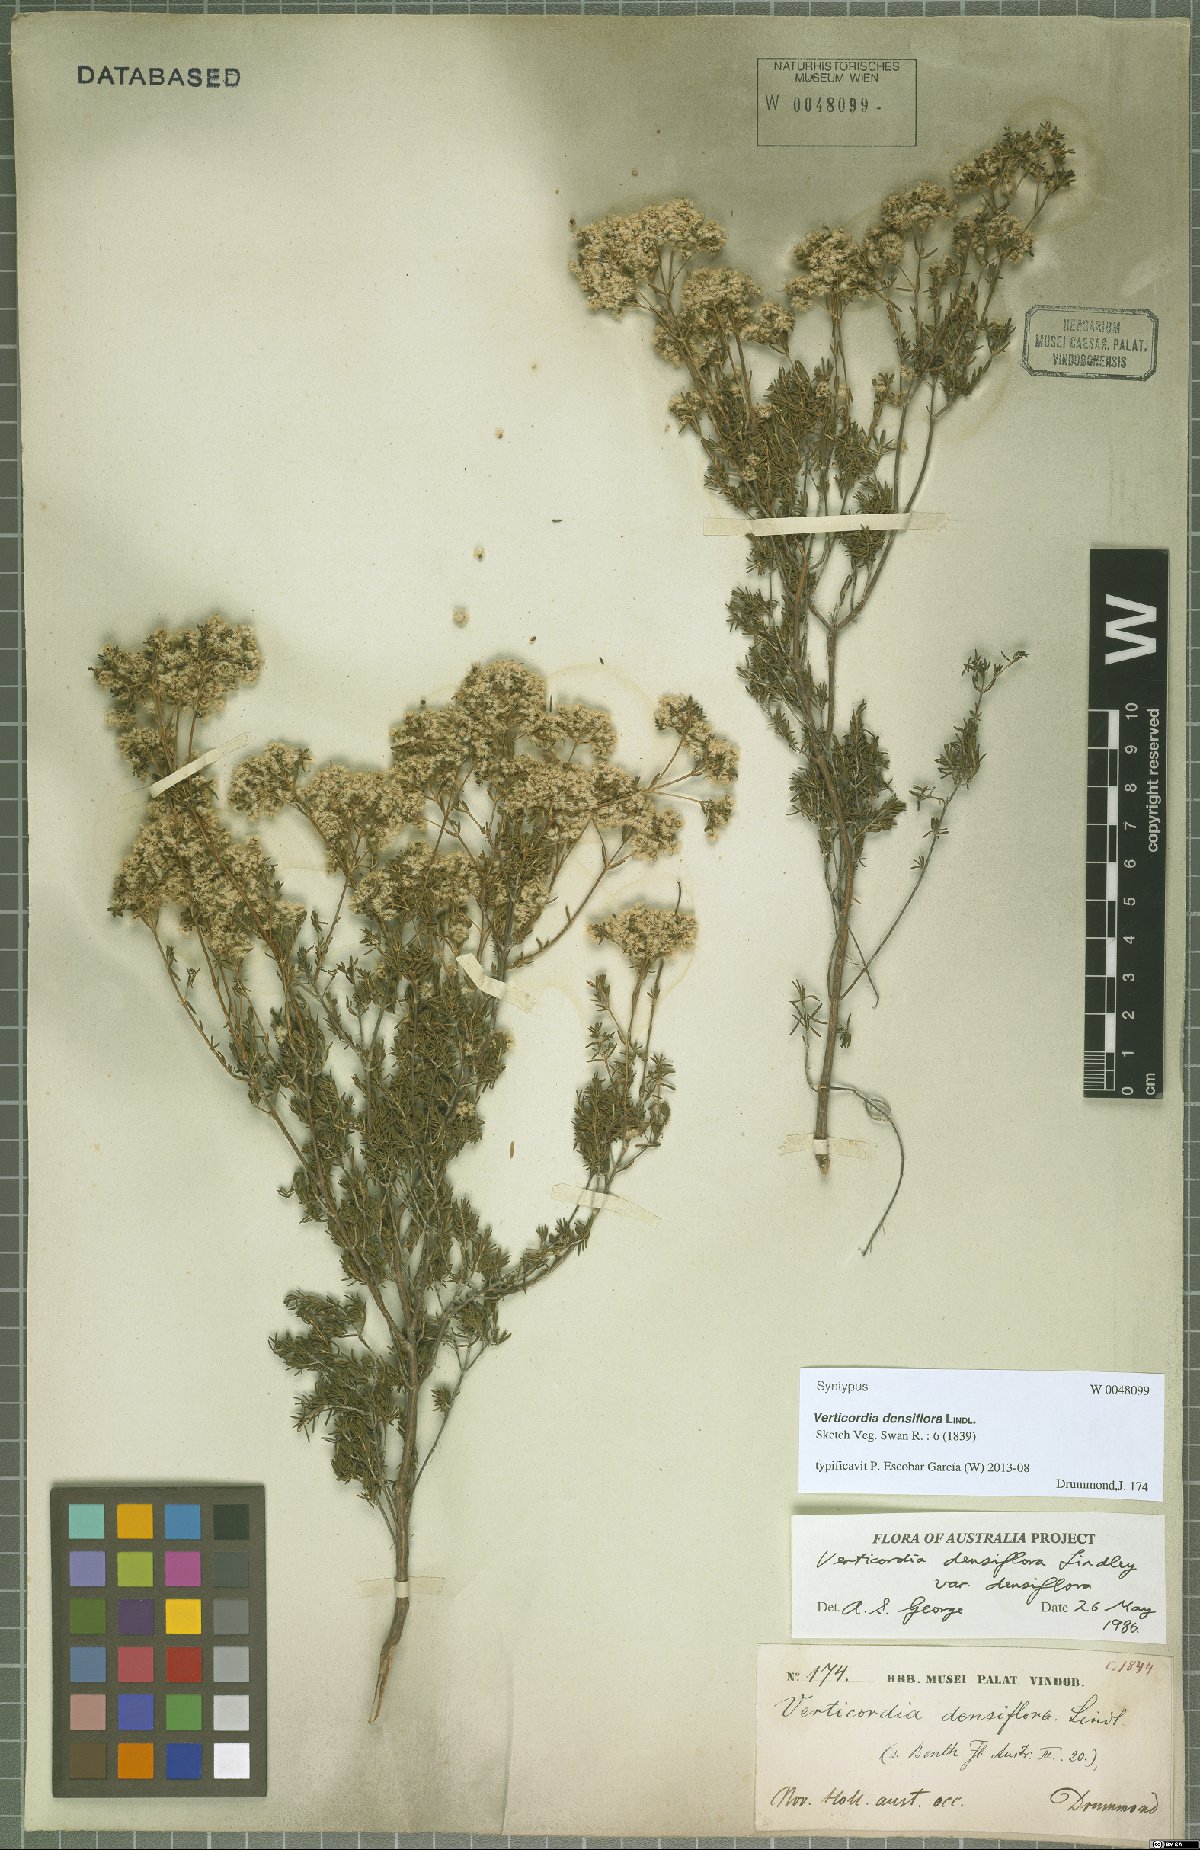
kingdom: Plantae
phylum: Tracheophyta
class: Magnoliopsida
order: Myrtales
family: Myrtaceae
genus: Verticordia
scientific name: Verticordia densiflora
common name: Compact feather-flower
